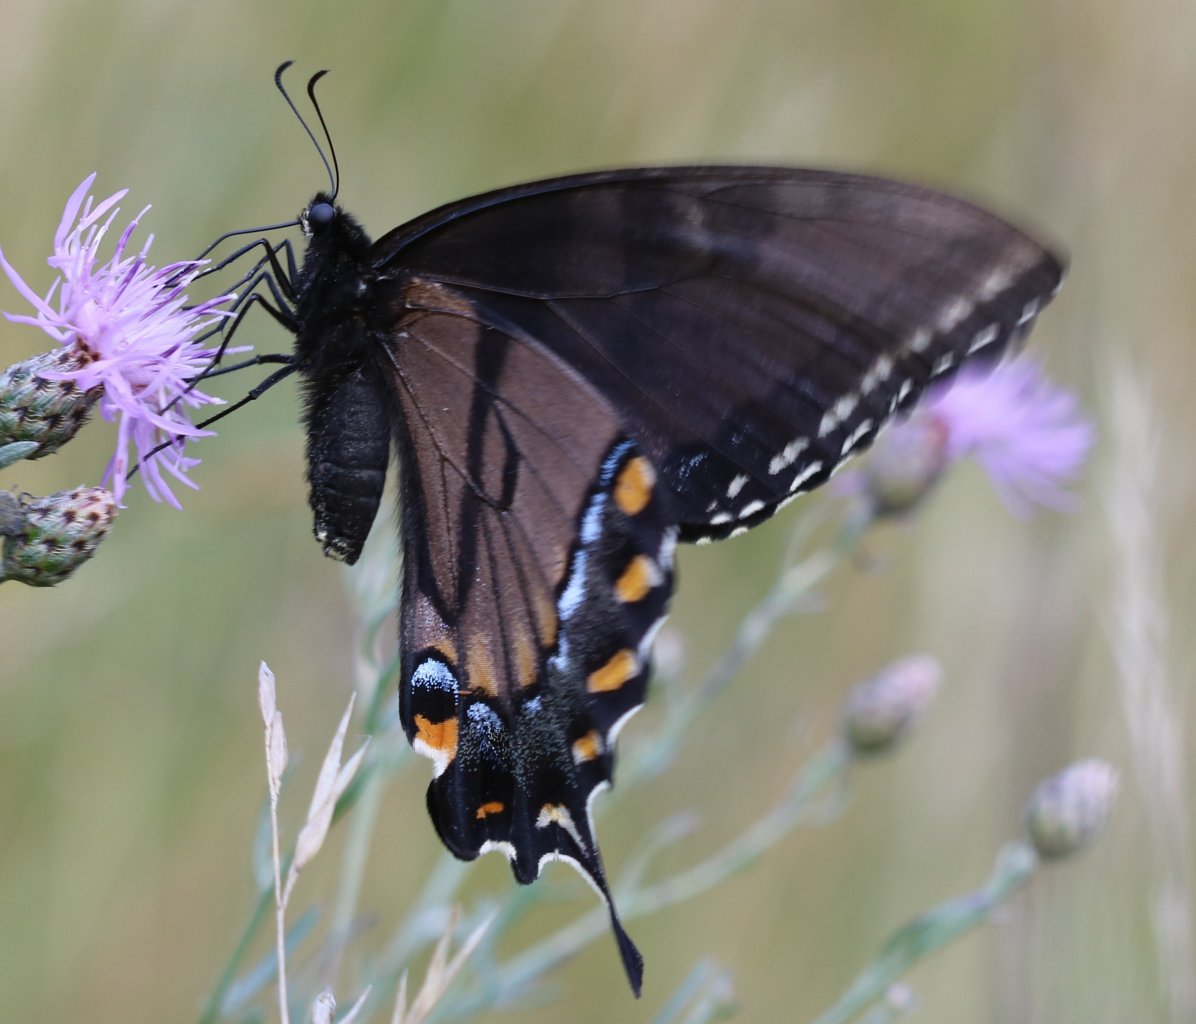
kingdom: Animalia
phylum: Arthropoda
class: Insecta
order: Lepidoptera
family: Papilionidae
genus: Pterourus
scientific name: Pterourus glaucus
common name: Eastern Tiger Swallowtail
